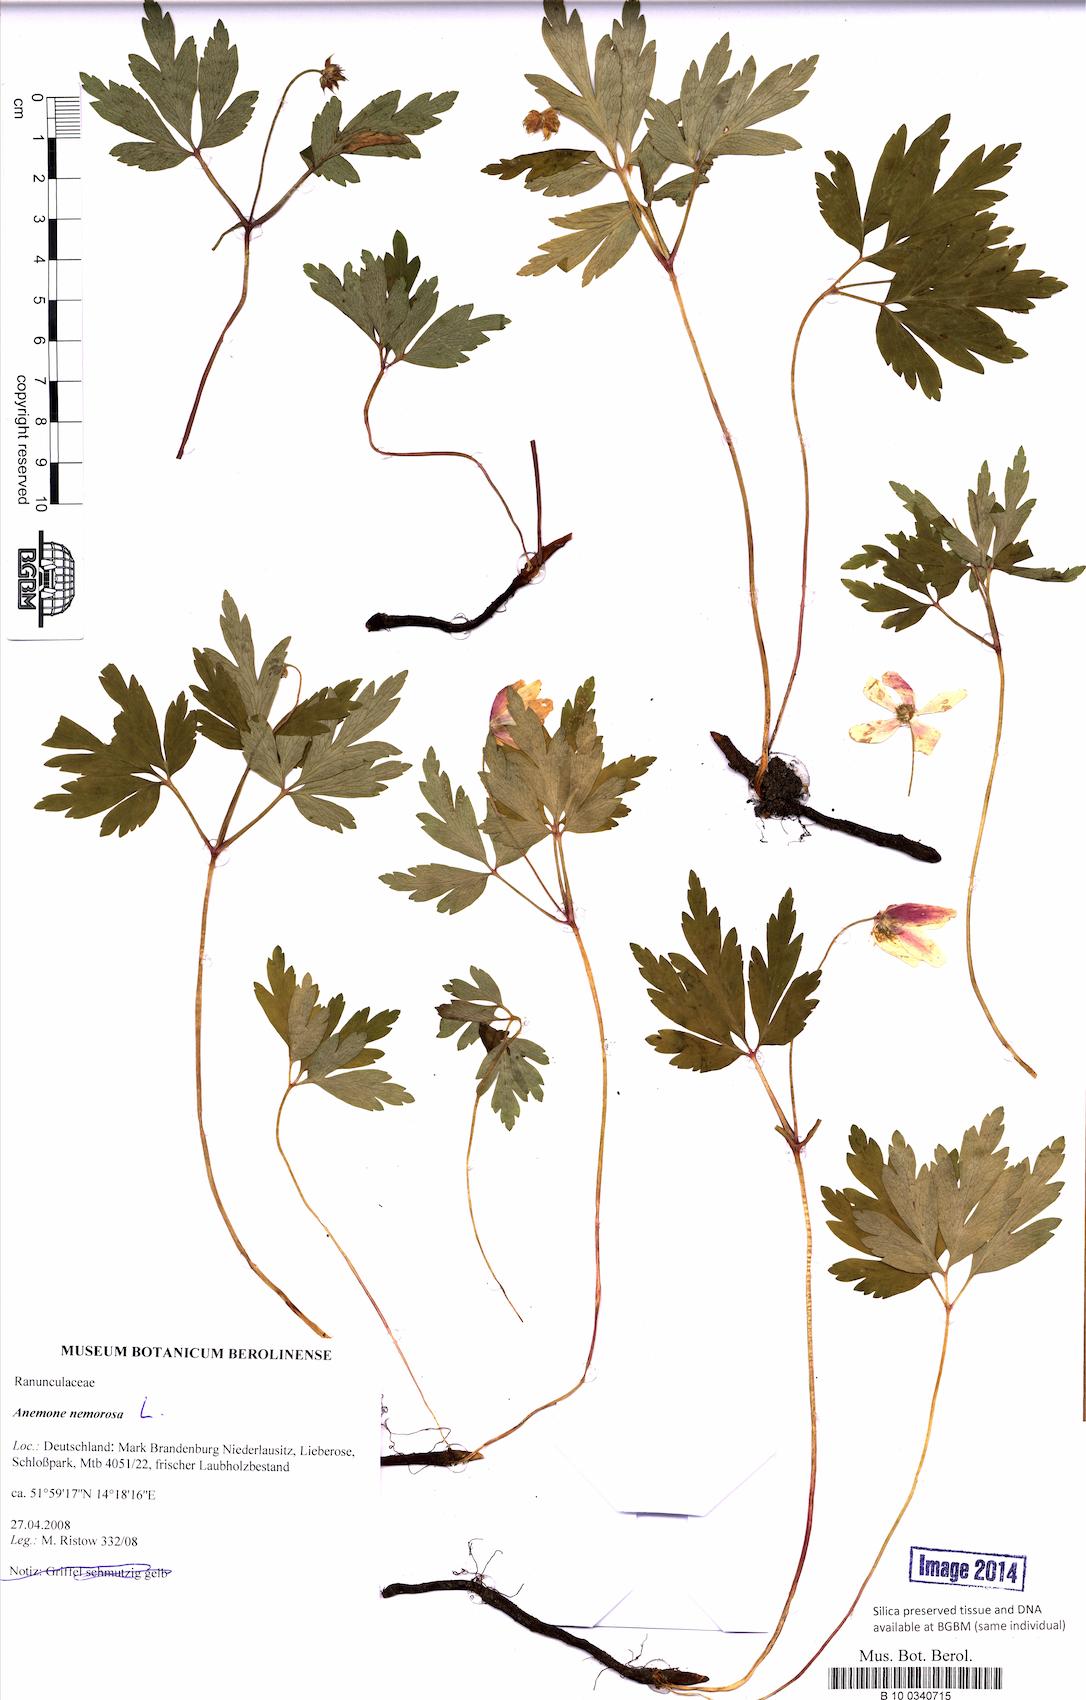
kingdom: Plantae
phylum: Tracheophyta
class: Magnoliopsida
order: Ranunculales
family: Ranunculaceae
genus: Anemone
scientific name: Anemone nemorosa
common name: Wood anemone
